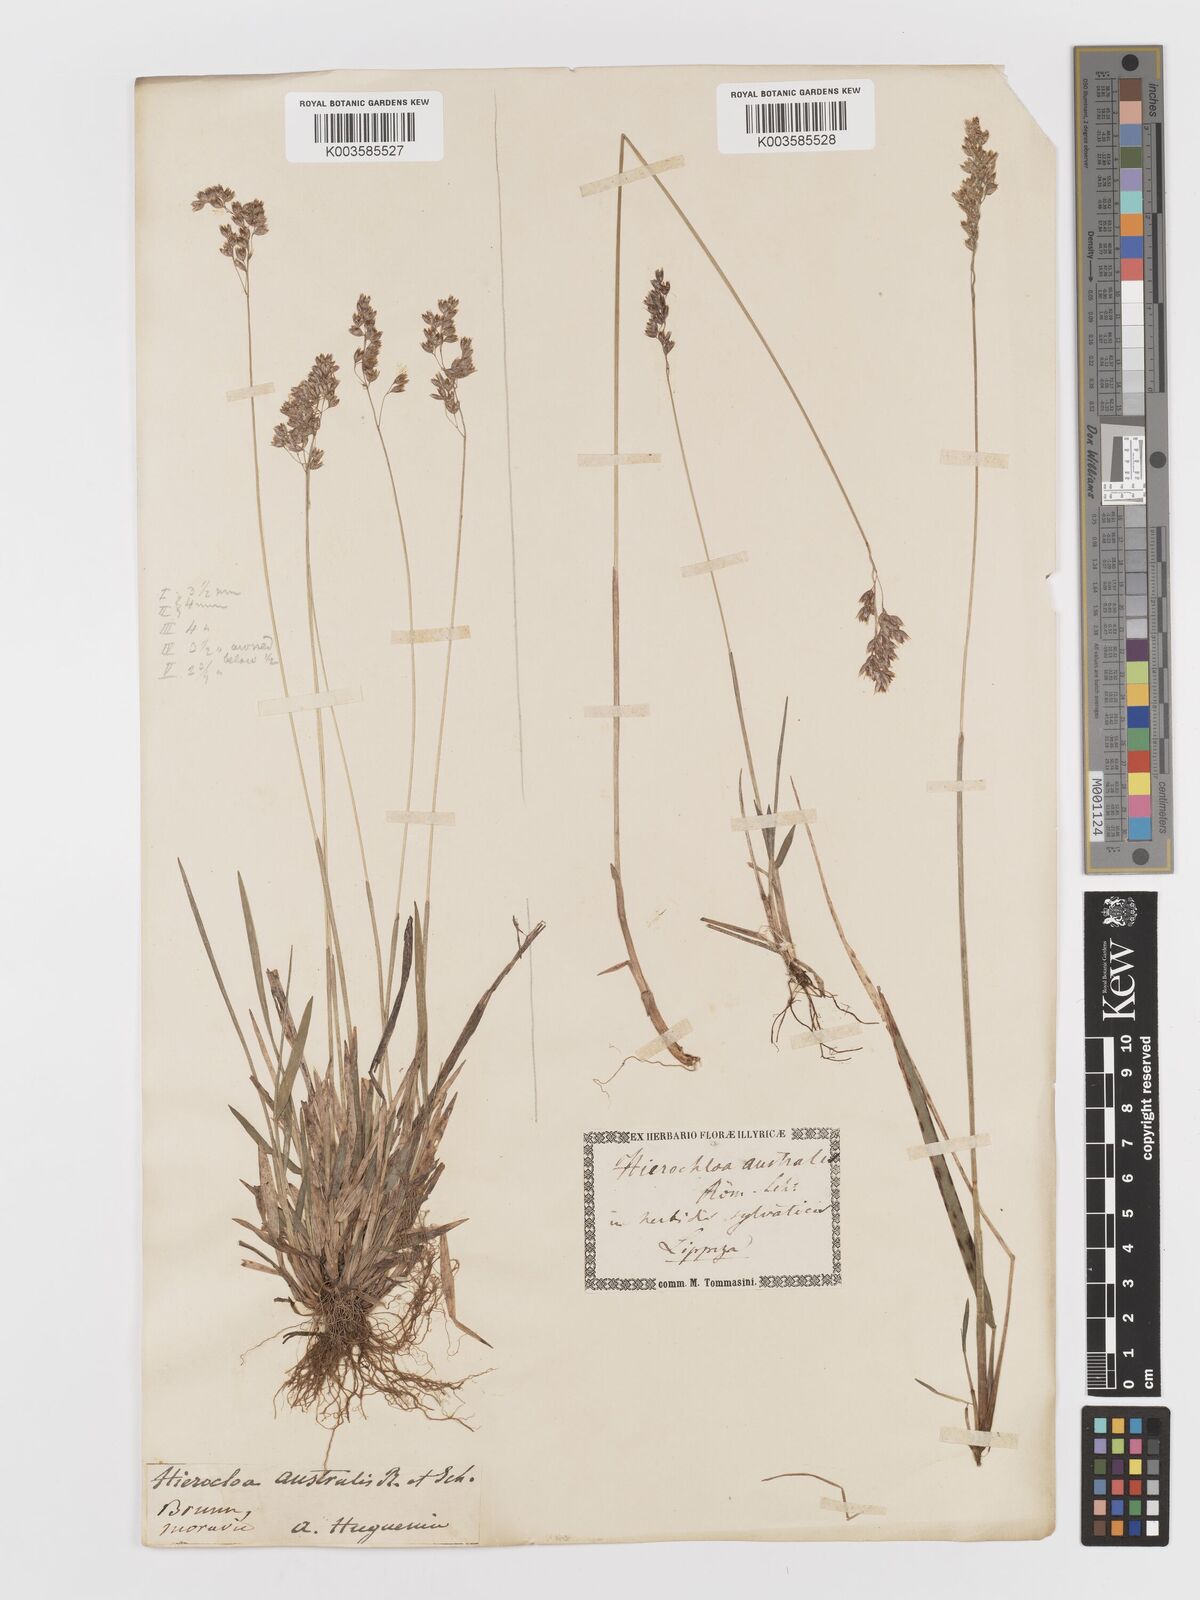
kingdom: Plantae
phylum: Tracheophyta
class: Liliopsida
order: Poales
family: Poaceae
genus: Anthoxanthum
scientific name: Anthoxanthum australe
